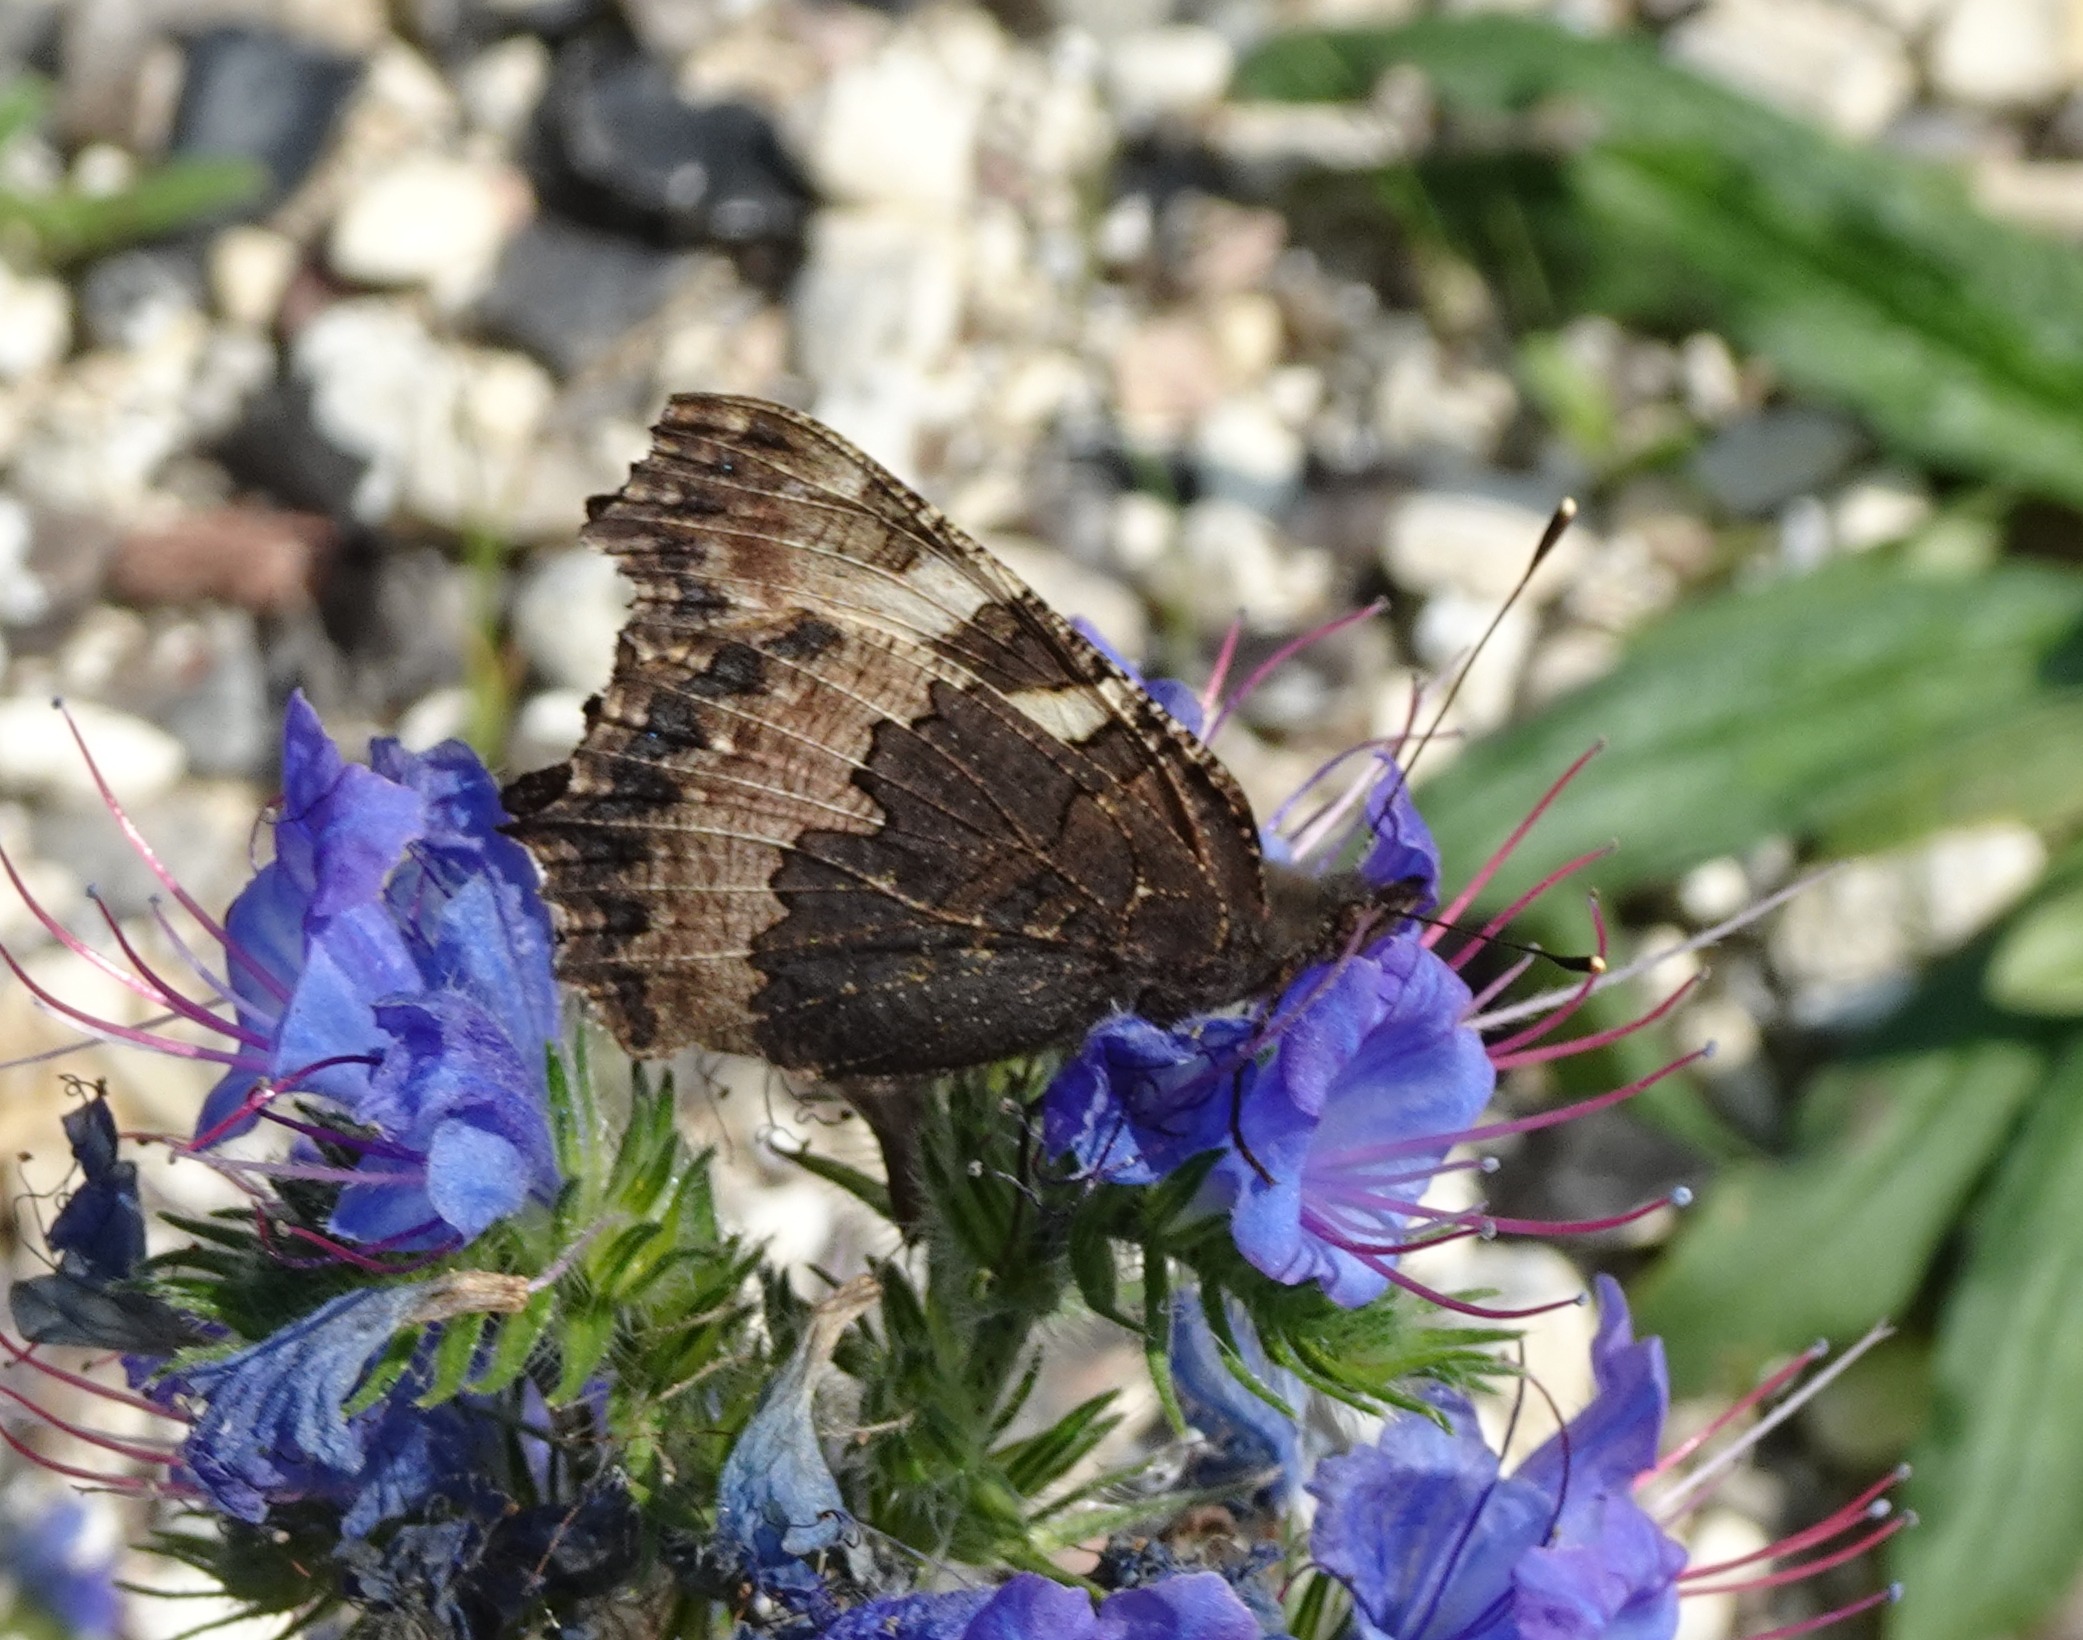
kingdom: Animalia
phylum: Arthropoda
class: Insecta
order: Lepidoptera
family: Nymphalidae
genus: Aglais
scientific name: Aglais urticae
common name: Nældens takvinge
